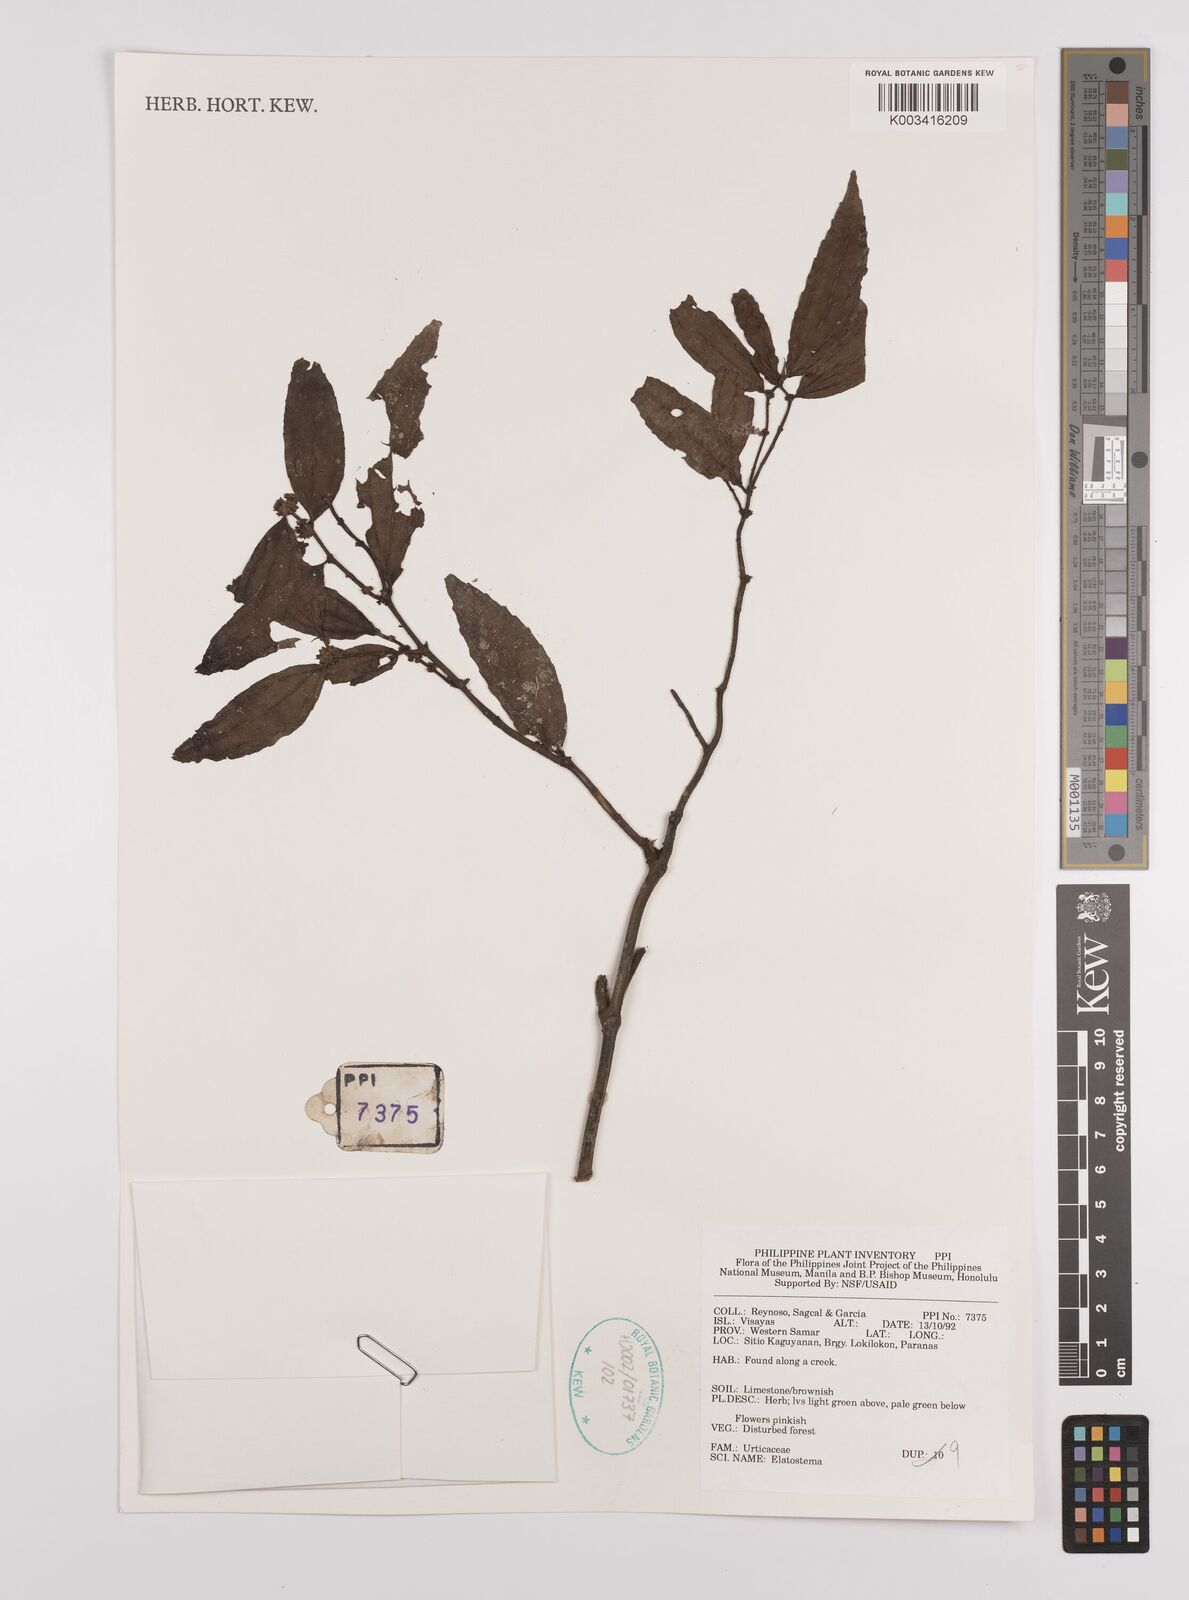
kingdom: Plantae
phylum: Tracheophyta
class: Magnoliopsida
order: Rosales
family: Urticaceae
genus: Elatostema
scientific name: Elatostema
